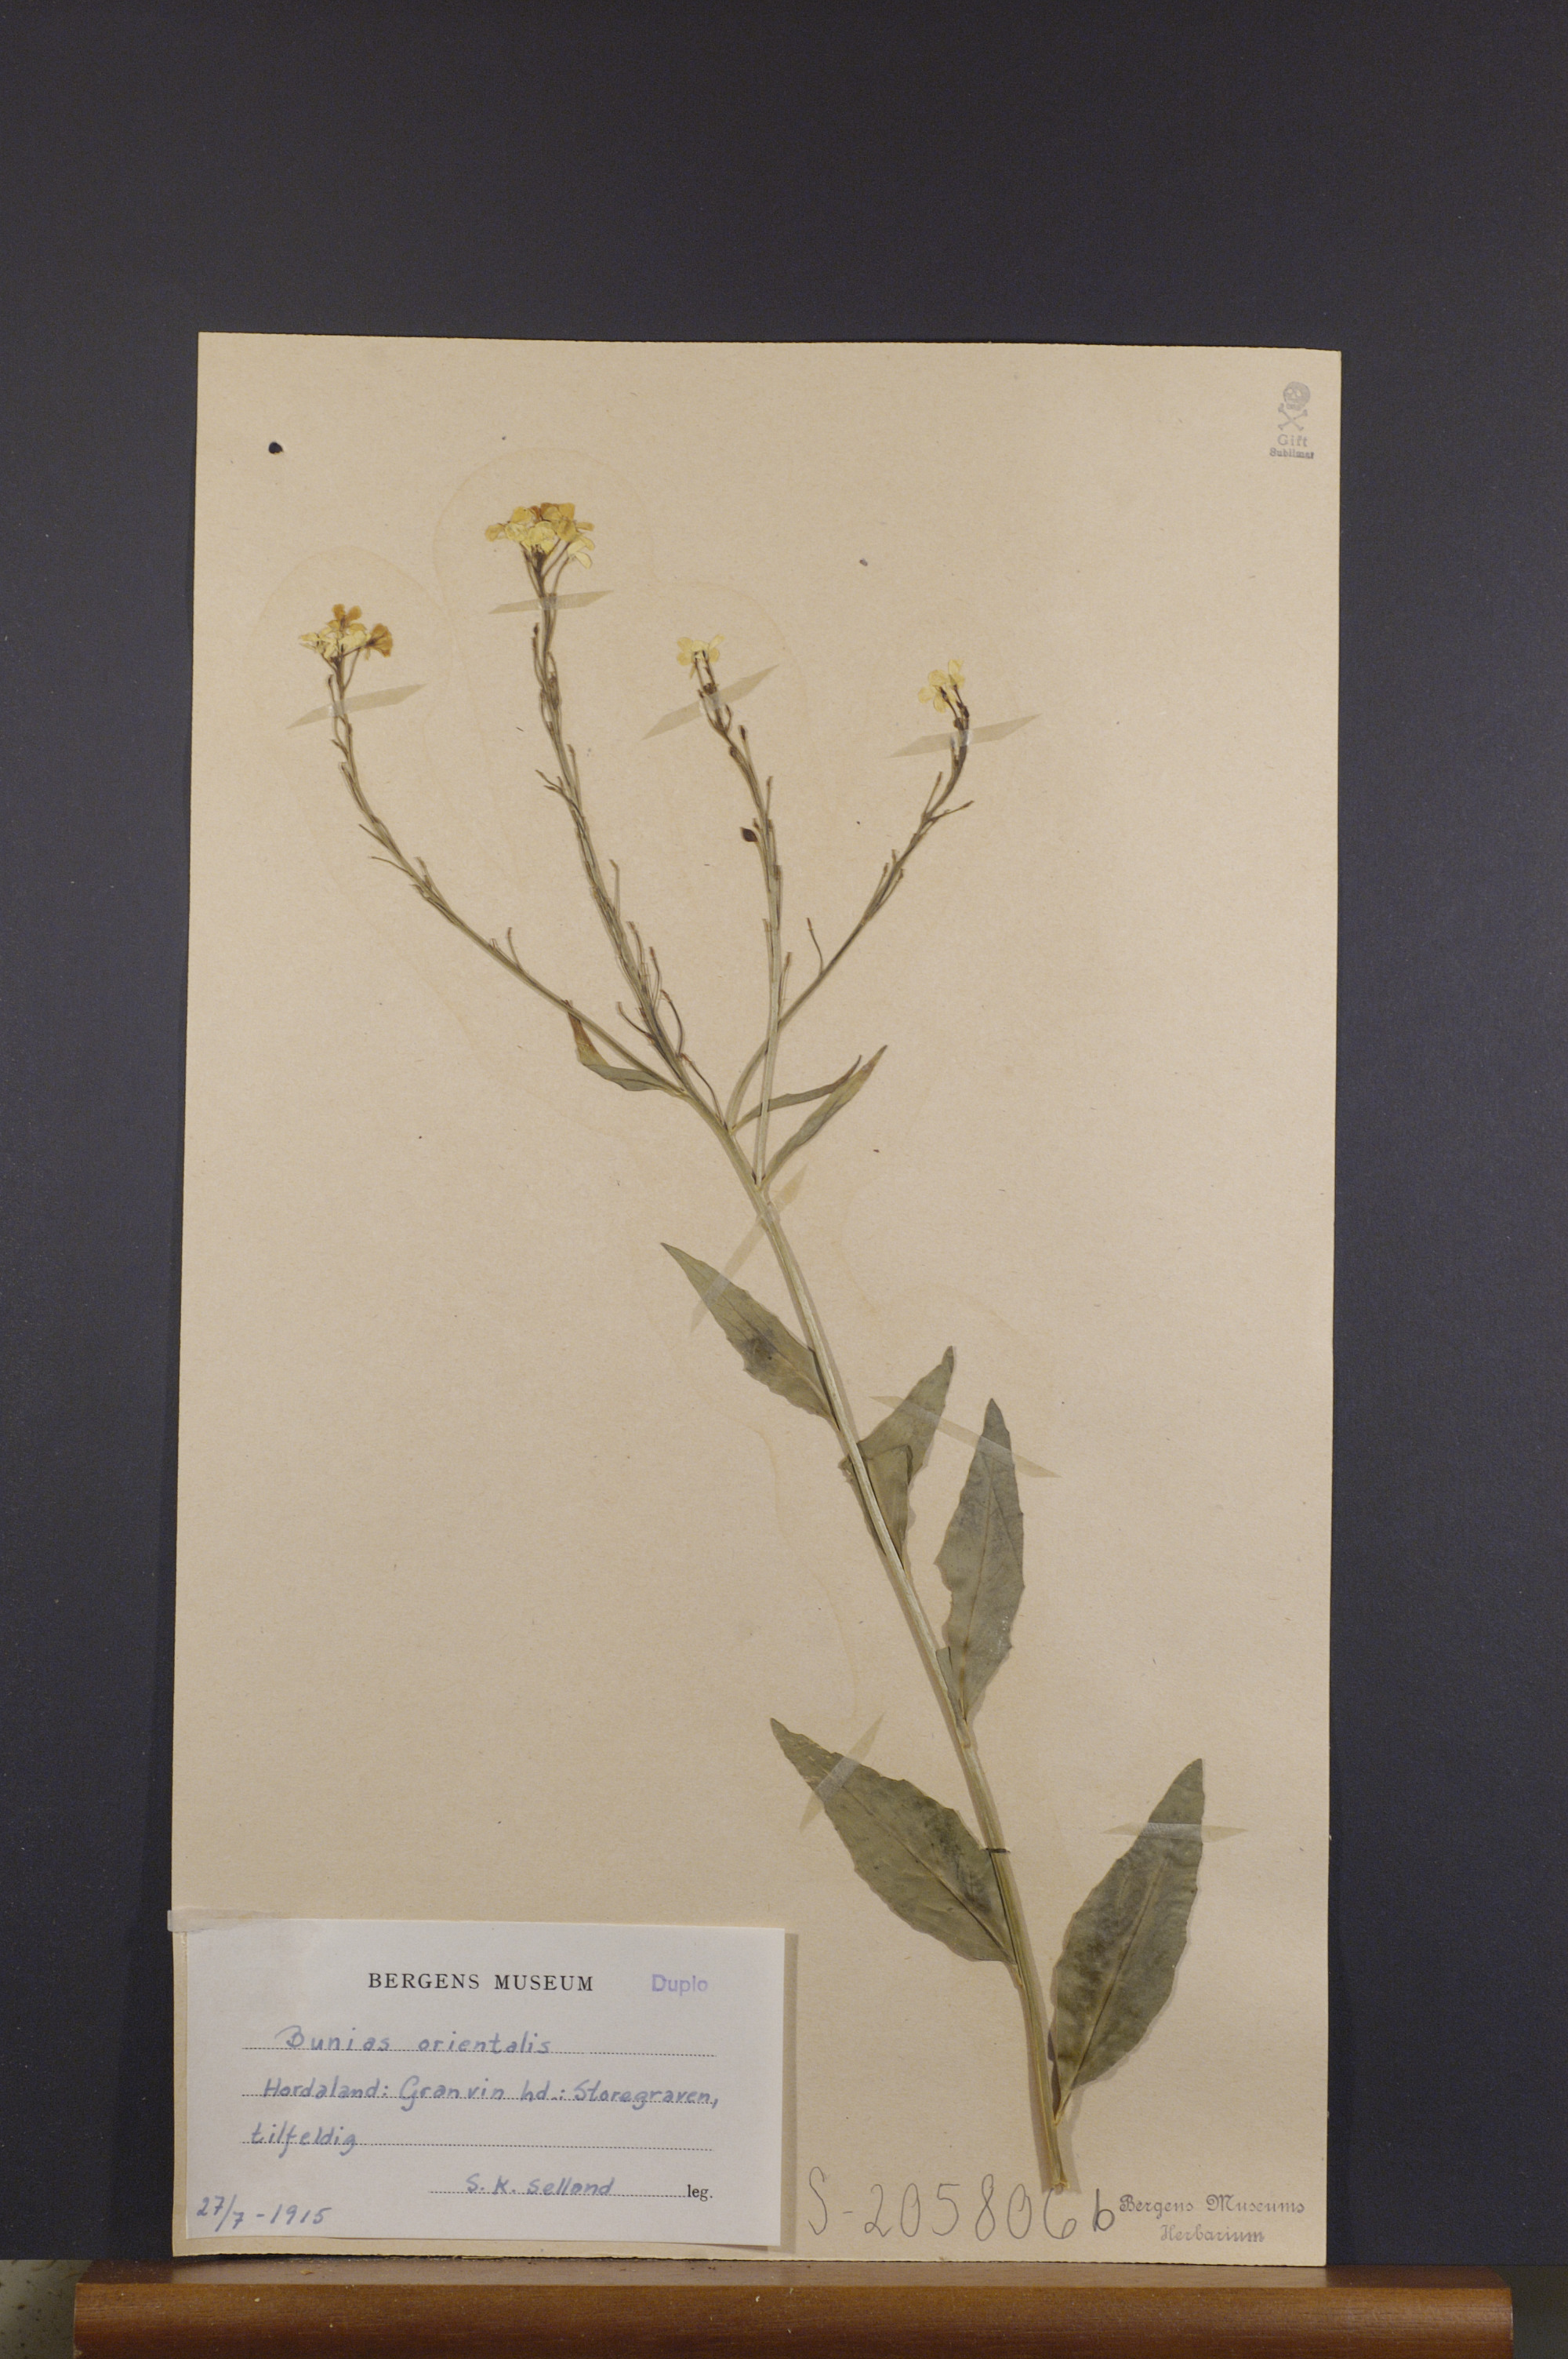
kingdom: Plantae
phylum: Tracheophyta
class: Magnoliopsida
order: Brassicales
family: Brassicaceae
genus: Bunias
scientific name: Bunias orientalis
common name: Warty-cabbage
